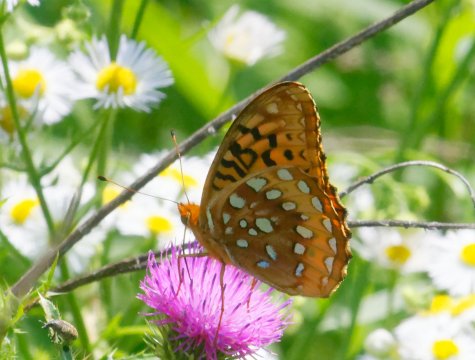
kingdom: Animalia
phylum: Arthropoda
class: Insecta
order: Lepidoptera
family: Nymphalidae
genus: Speyeria
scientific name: Speyeria cybele
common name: Great Spangled Fritillary
